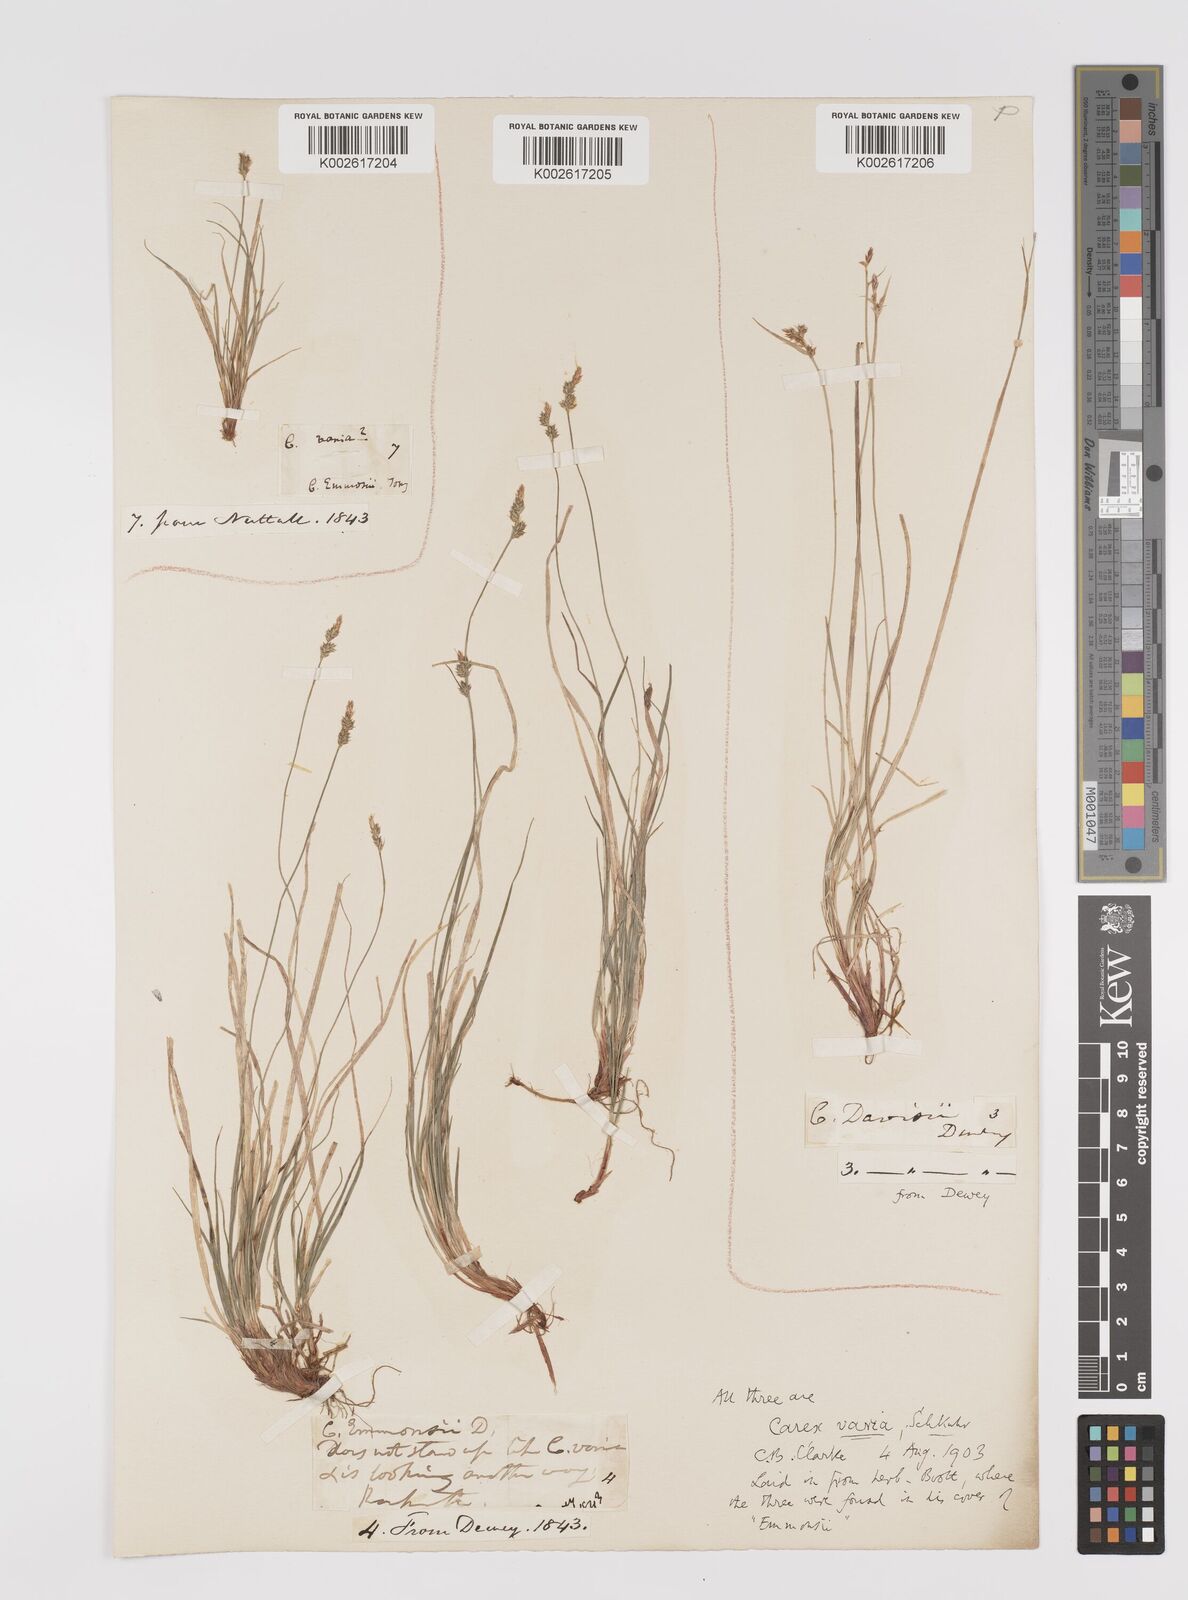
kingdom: Plantae
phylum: Tracheophyta
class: Liliopsida
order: Poales
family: Cyperaceae
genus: Carex
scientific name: Carex albicans
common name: Bellow-beaked sedge
